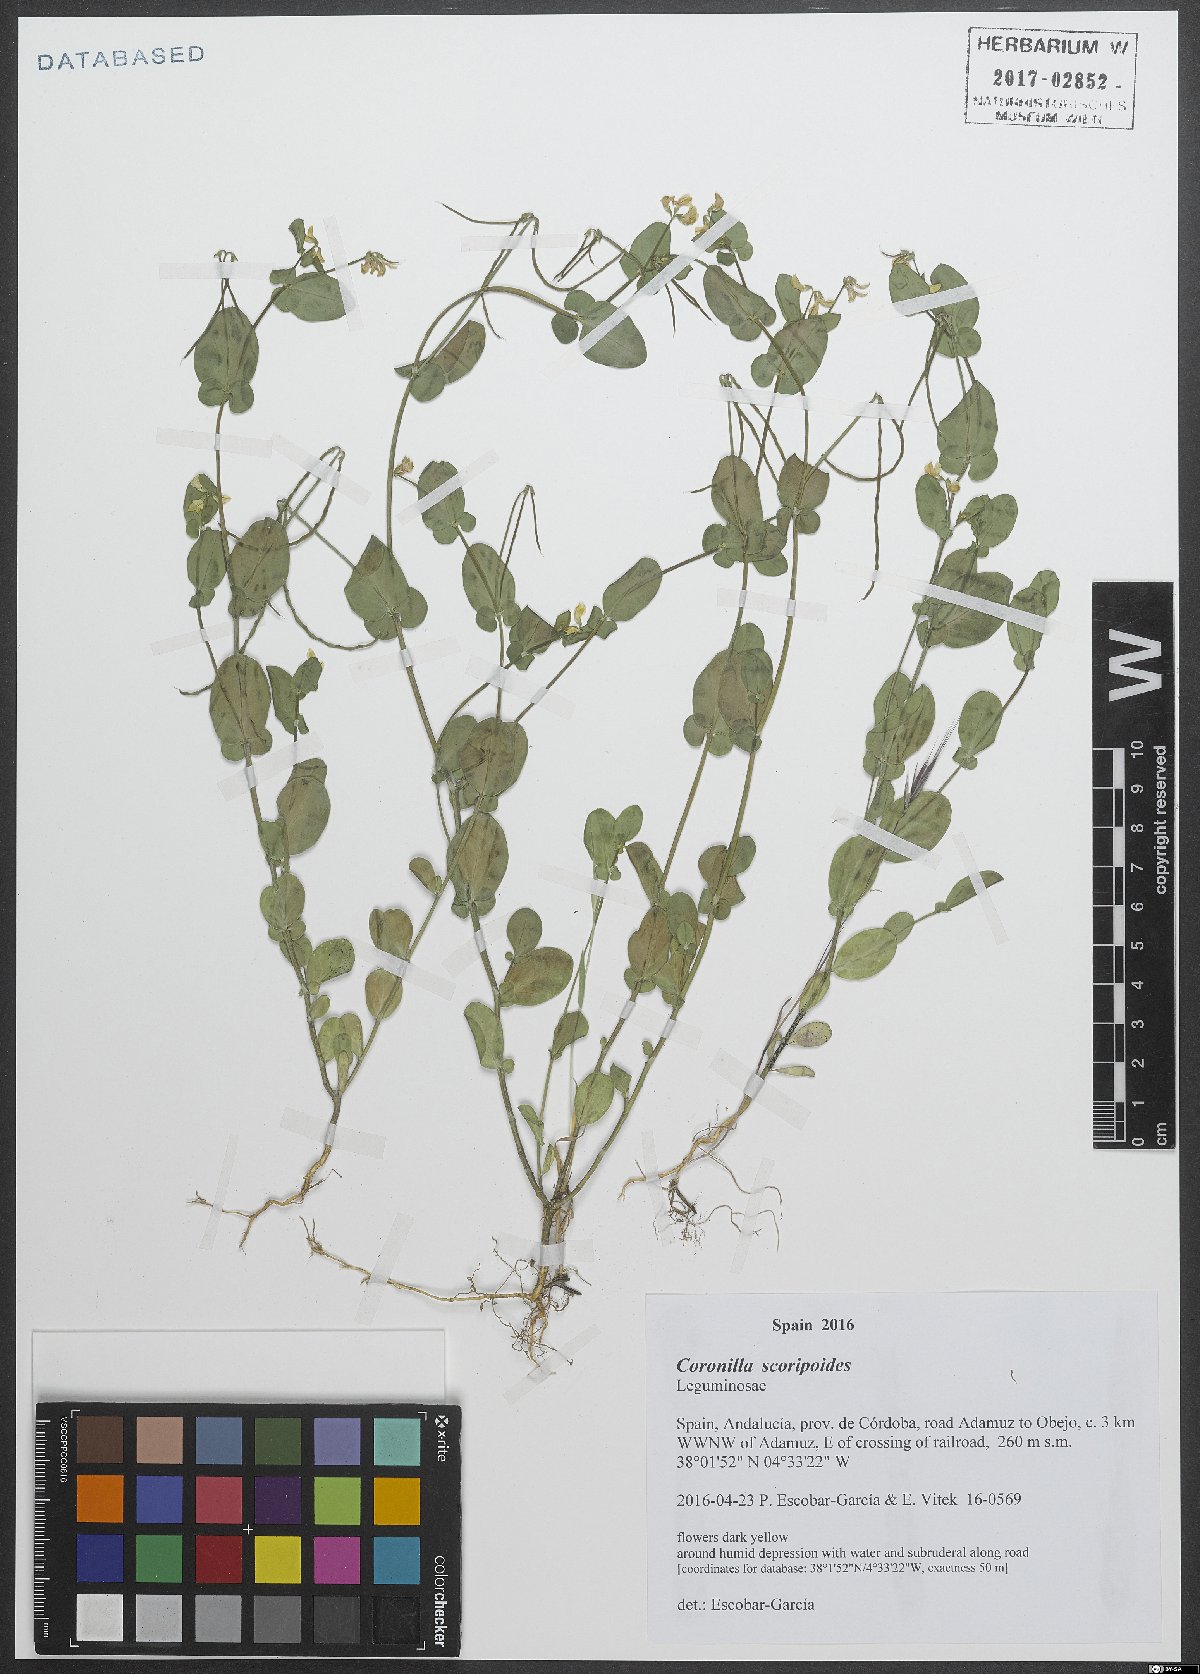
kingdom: Plantae
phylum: Tracheophyta
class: Magnoliopsida
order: Fabales
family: Fabaceae
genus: Coronilla
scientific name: Coronilla scorpioides
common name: Annual scorpion-vetch
